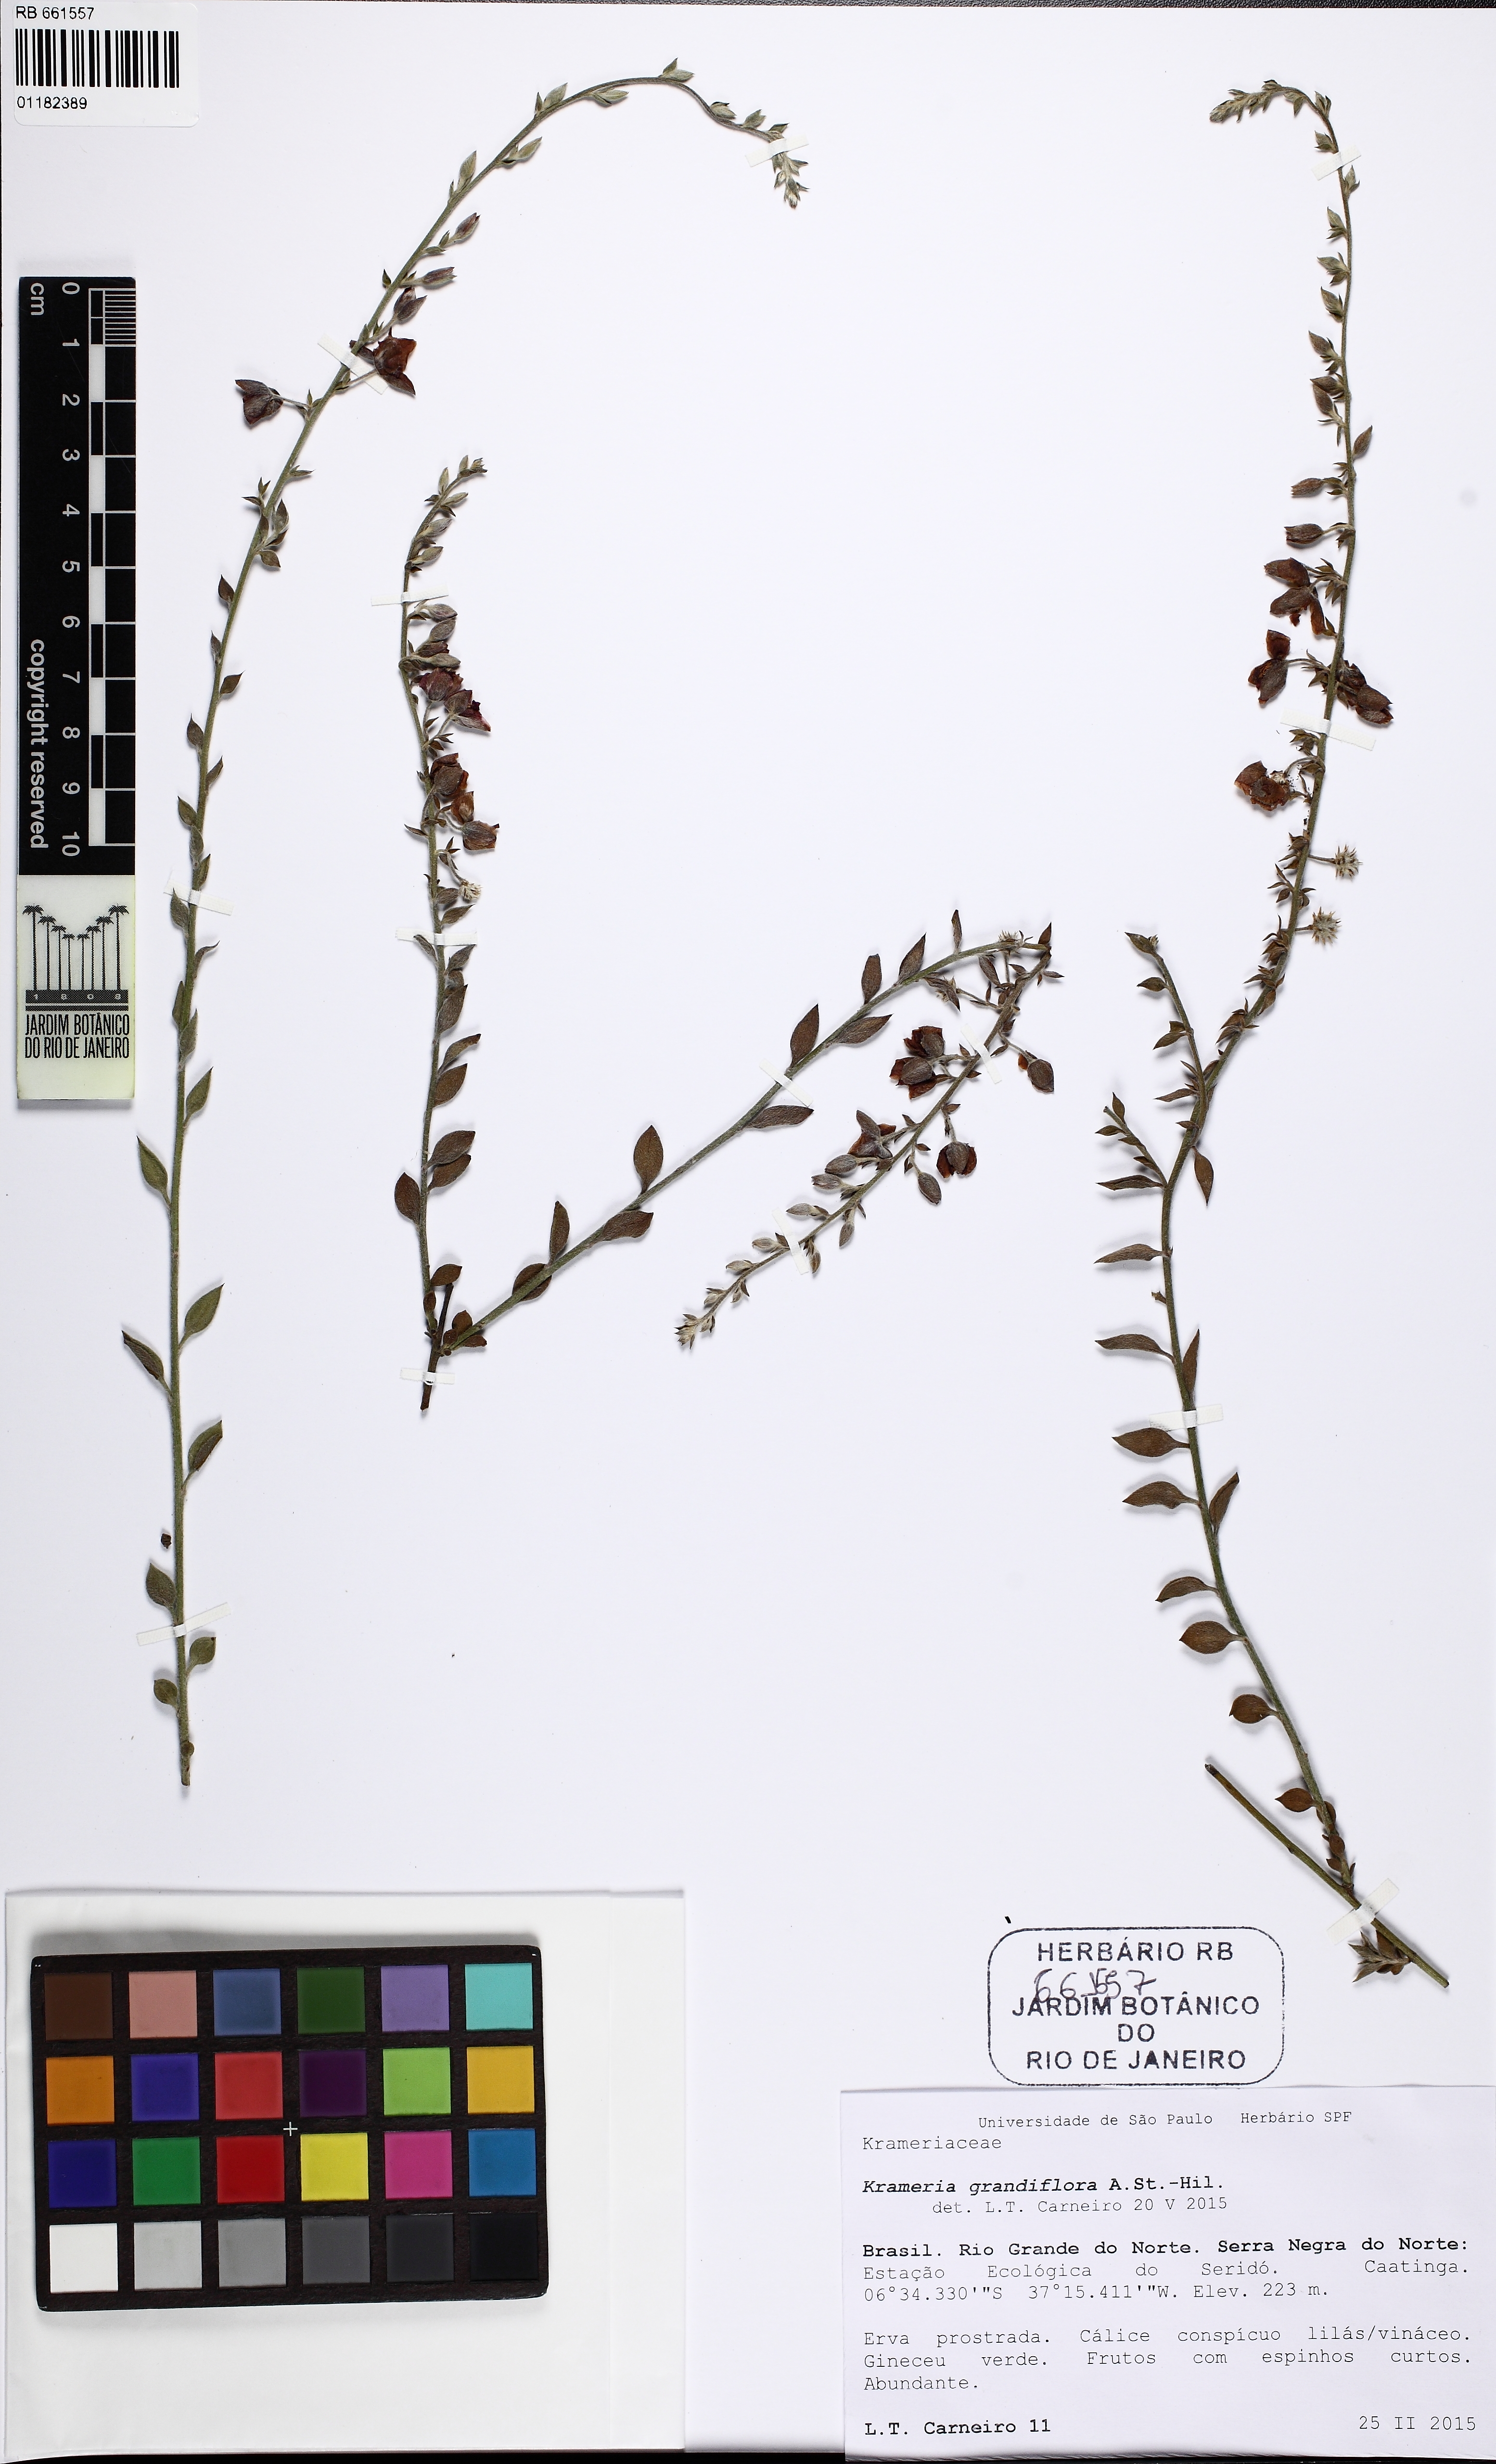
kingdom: Plantae
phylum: Tracheophyta
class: Magnoliopsida
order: Zygophyllales
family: Krameriaceae
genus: Krameria
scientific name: Krameria grandiflora
